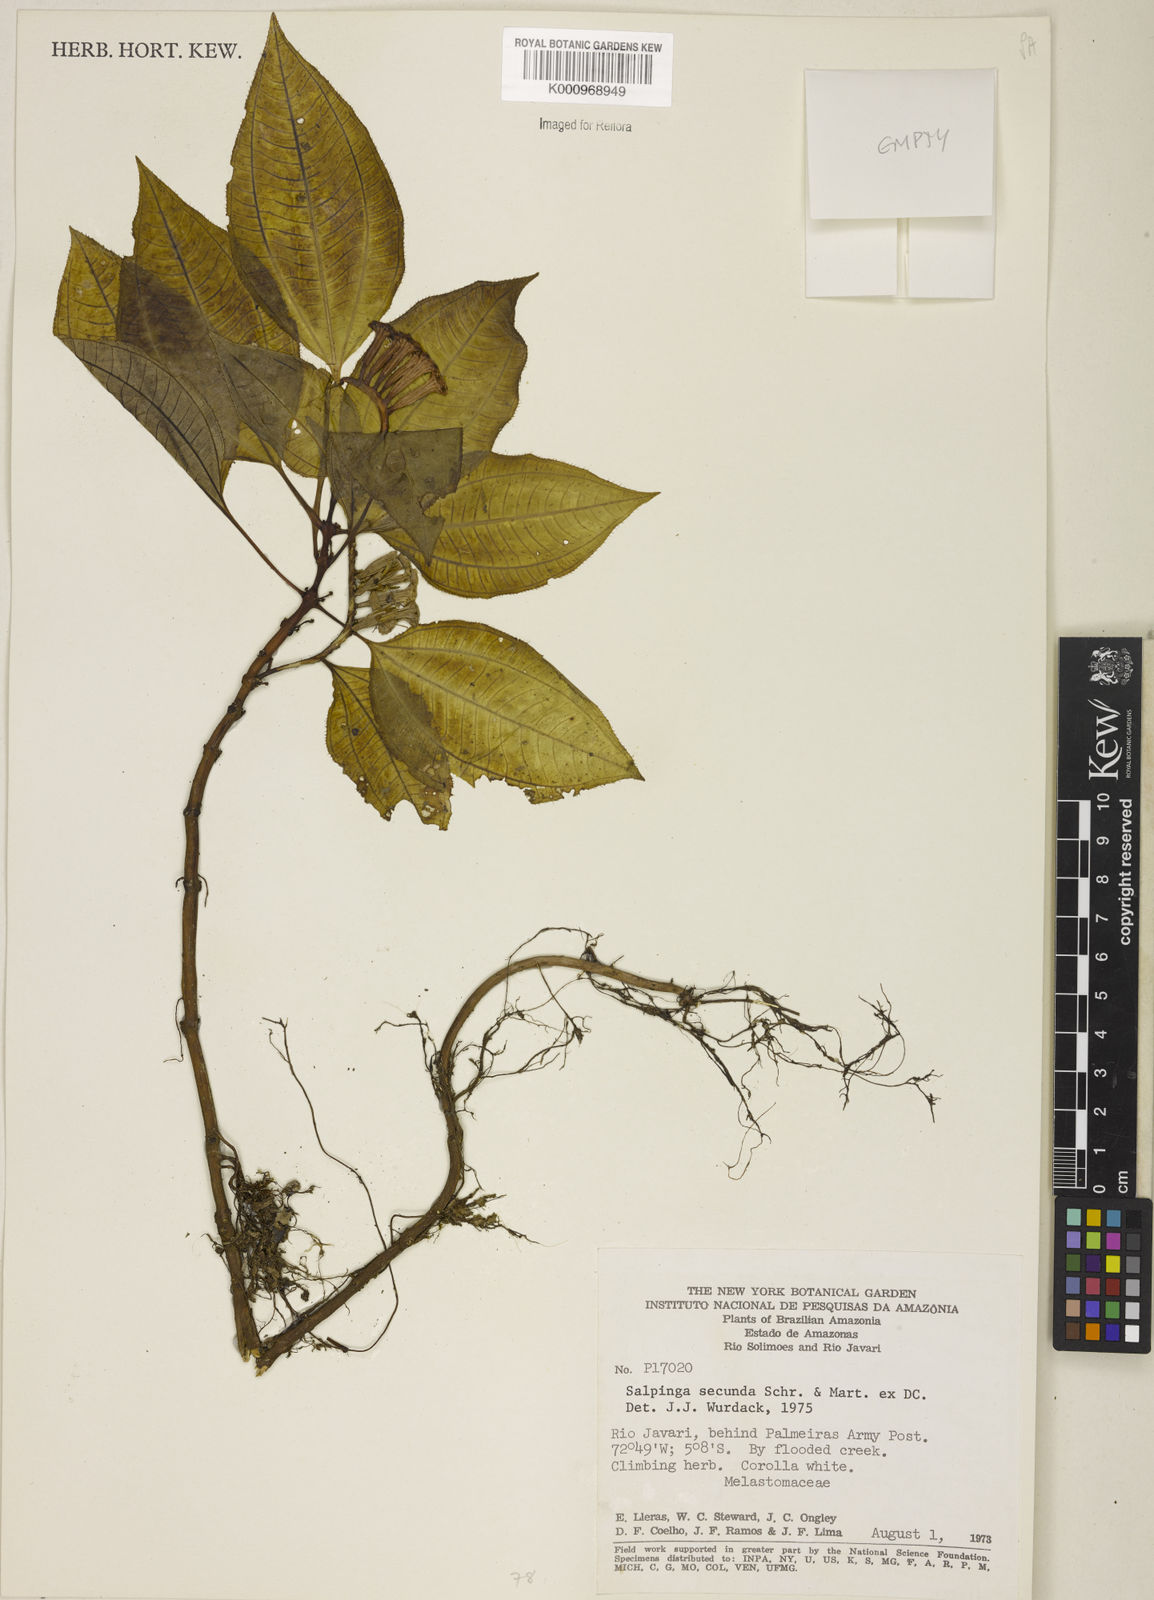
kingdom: Plantae
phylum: Tracheophyta
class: Magnoliopsida
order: Myrtales
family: Melastomataceae
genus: Salpinga
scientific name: Salpinga secunda
